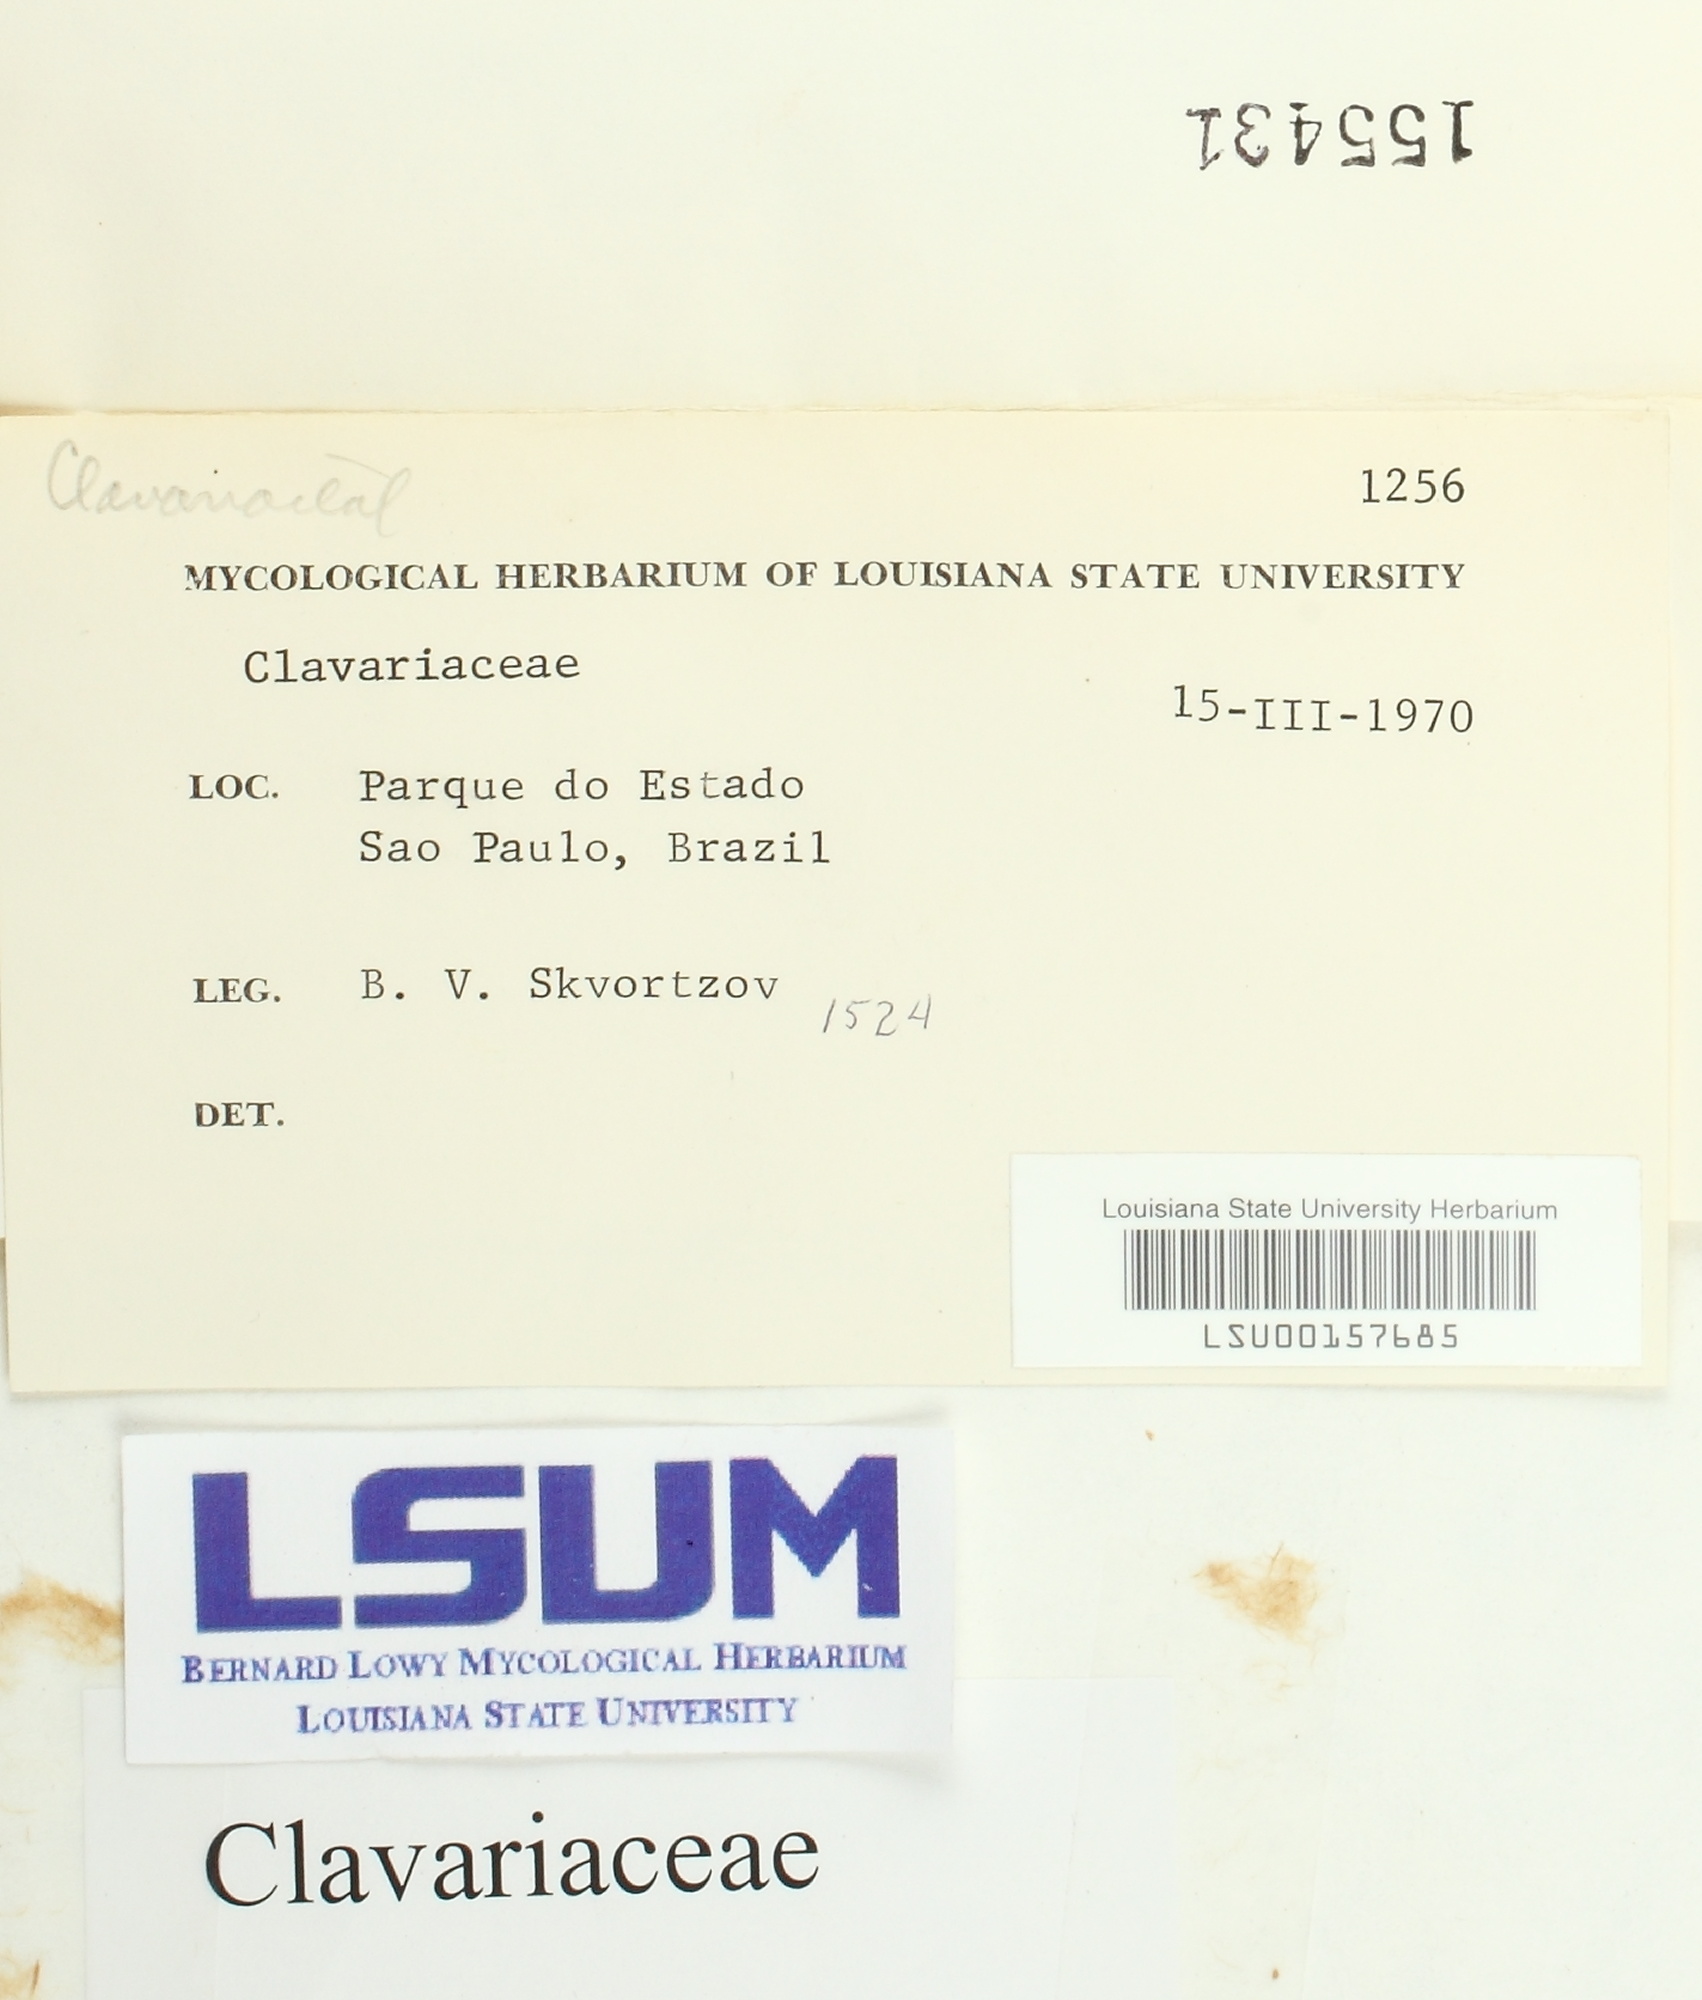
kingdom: Fungi
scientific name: Fungi
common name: Fungi
